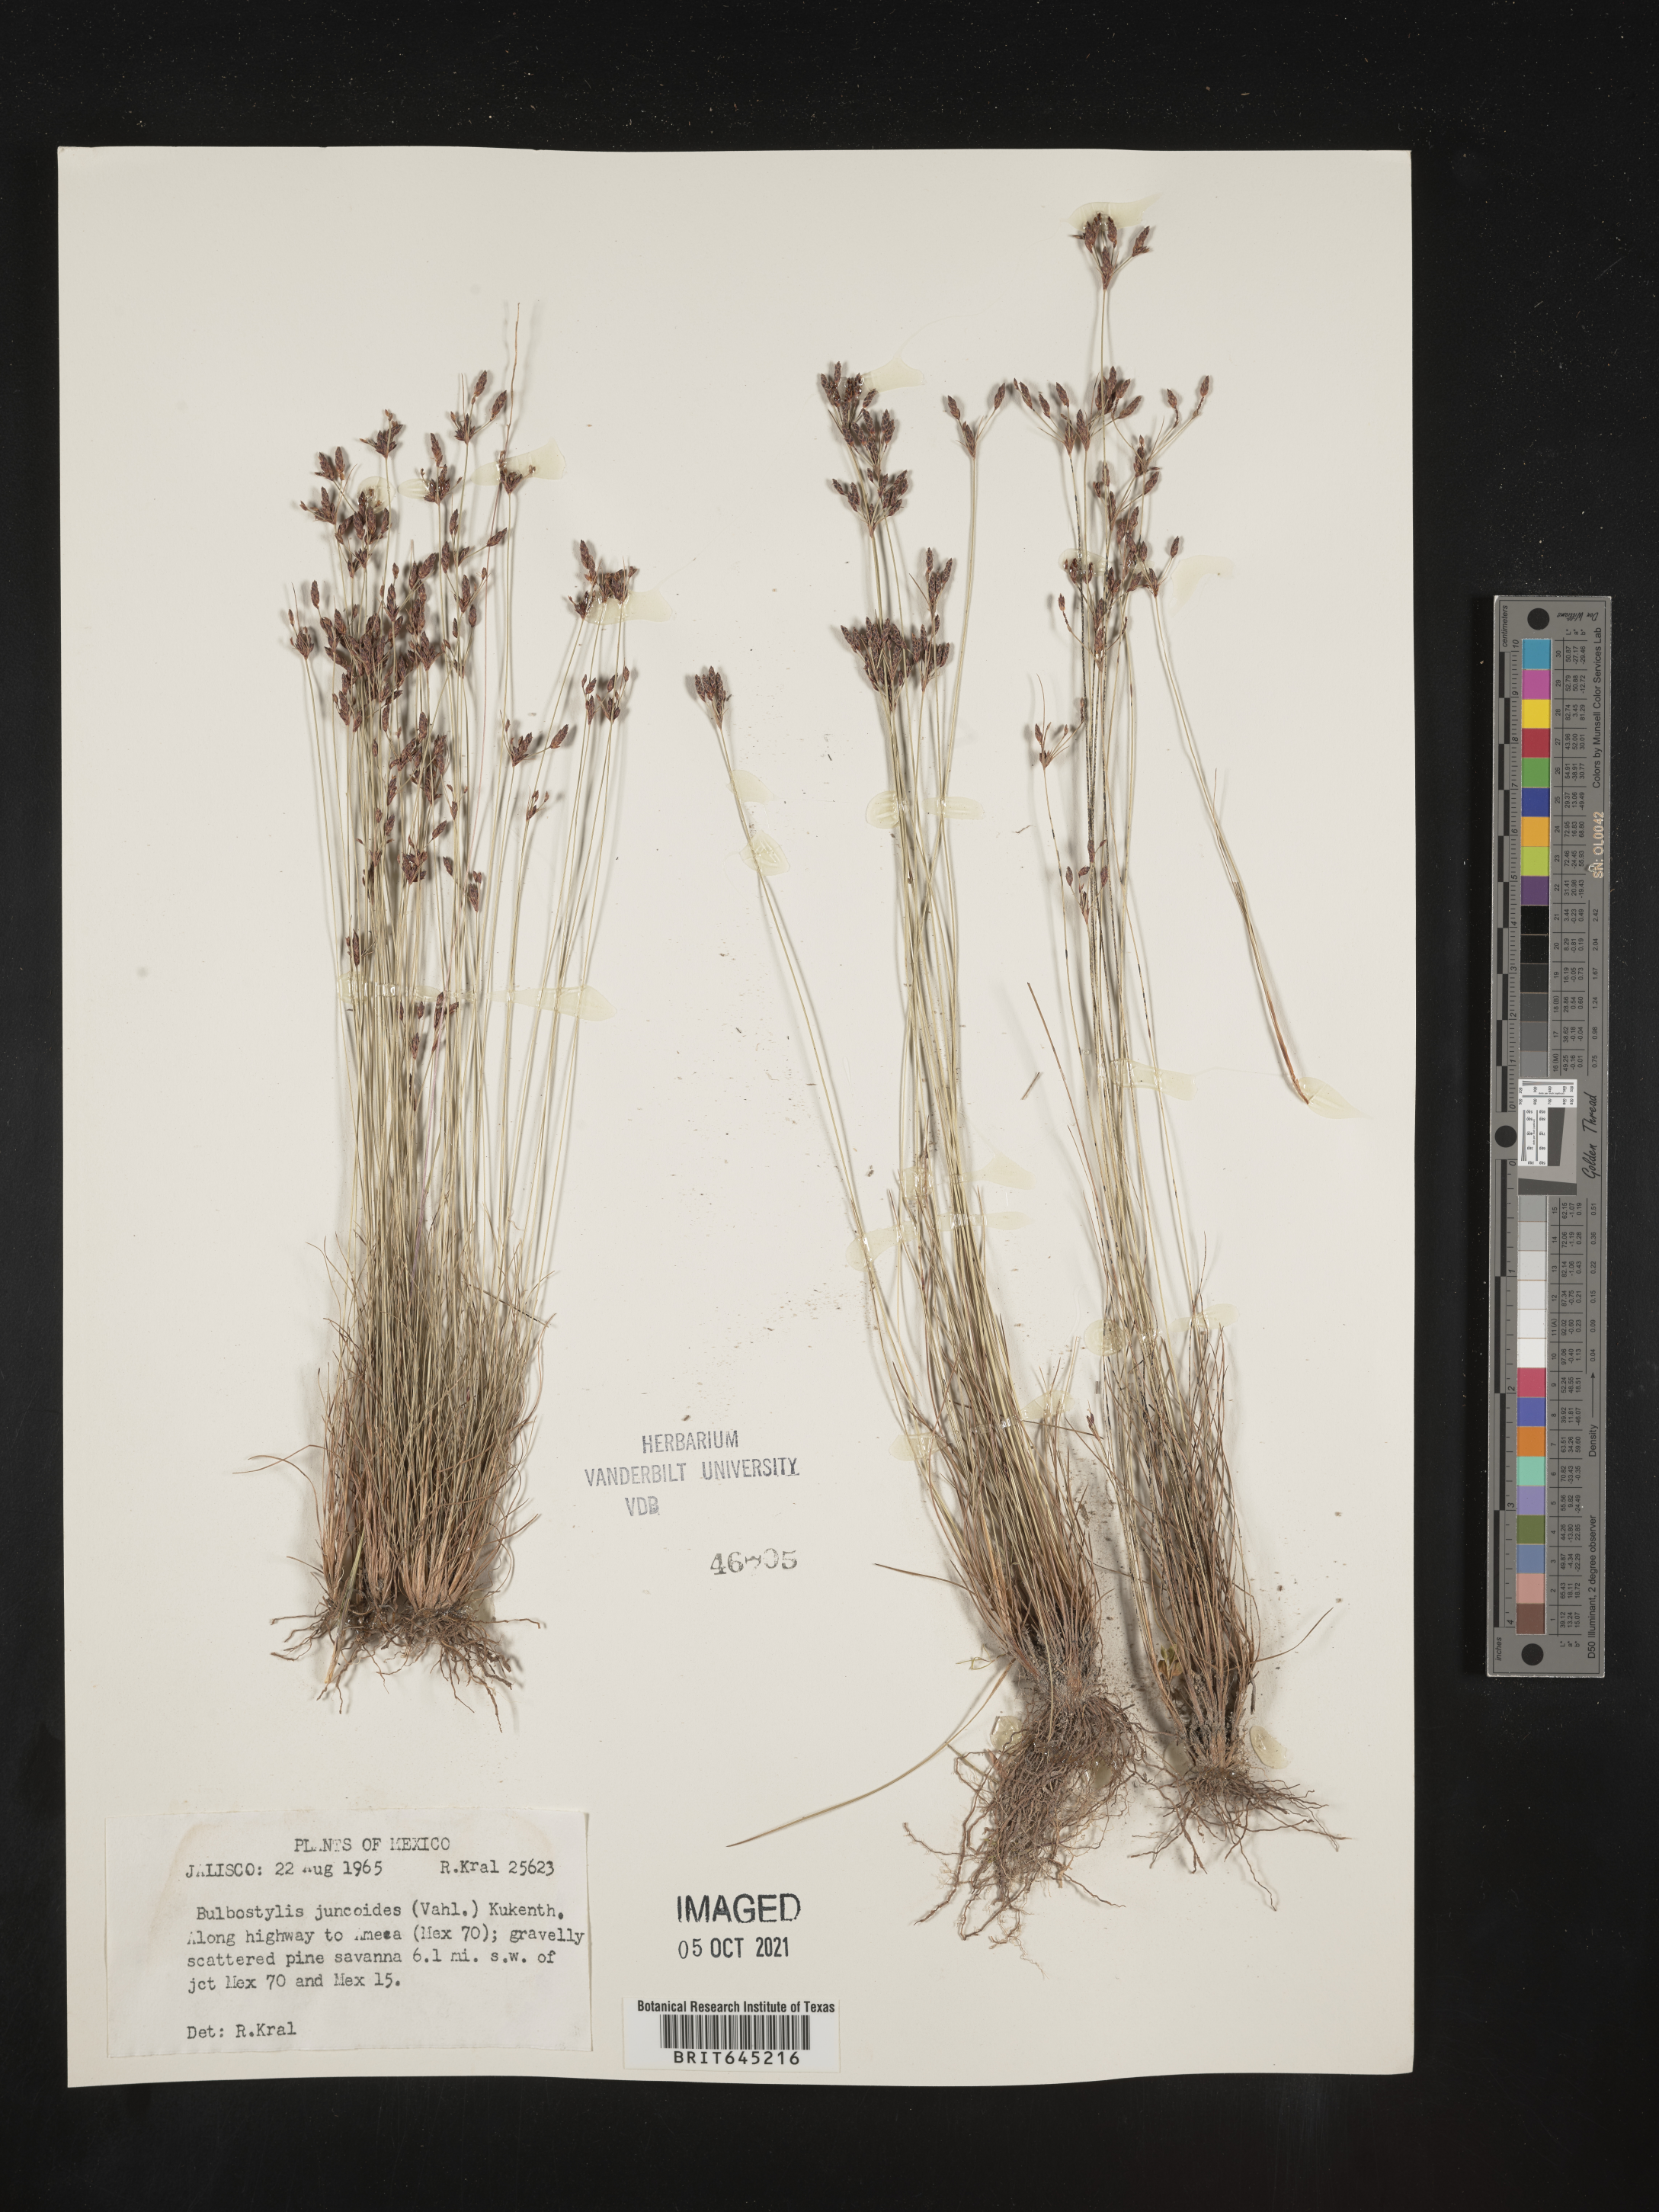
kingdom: Plantae
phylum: Tracheophyta
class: Liliopsida
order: Poales
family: Cyperaceae
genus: Bulbostylis
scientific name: Bulbostylis juncoides
